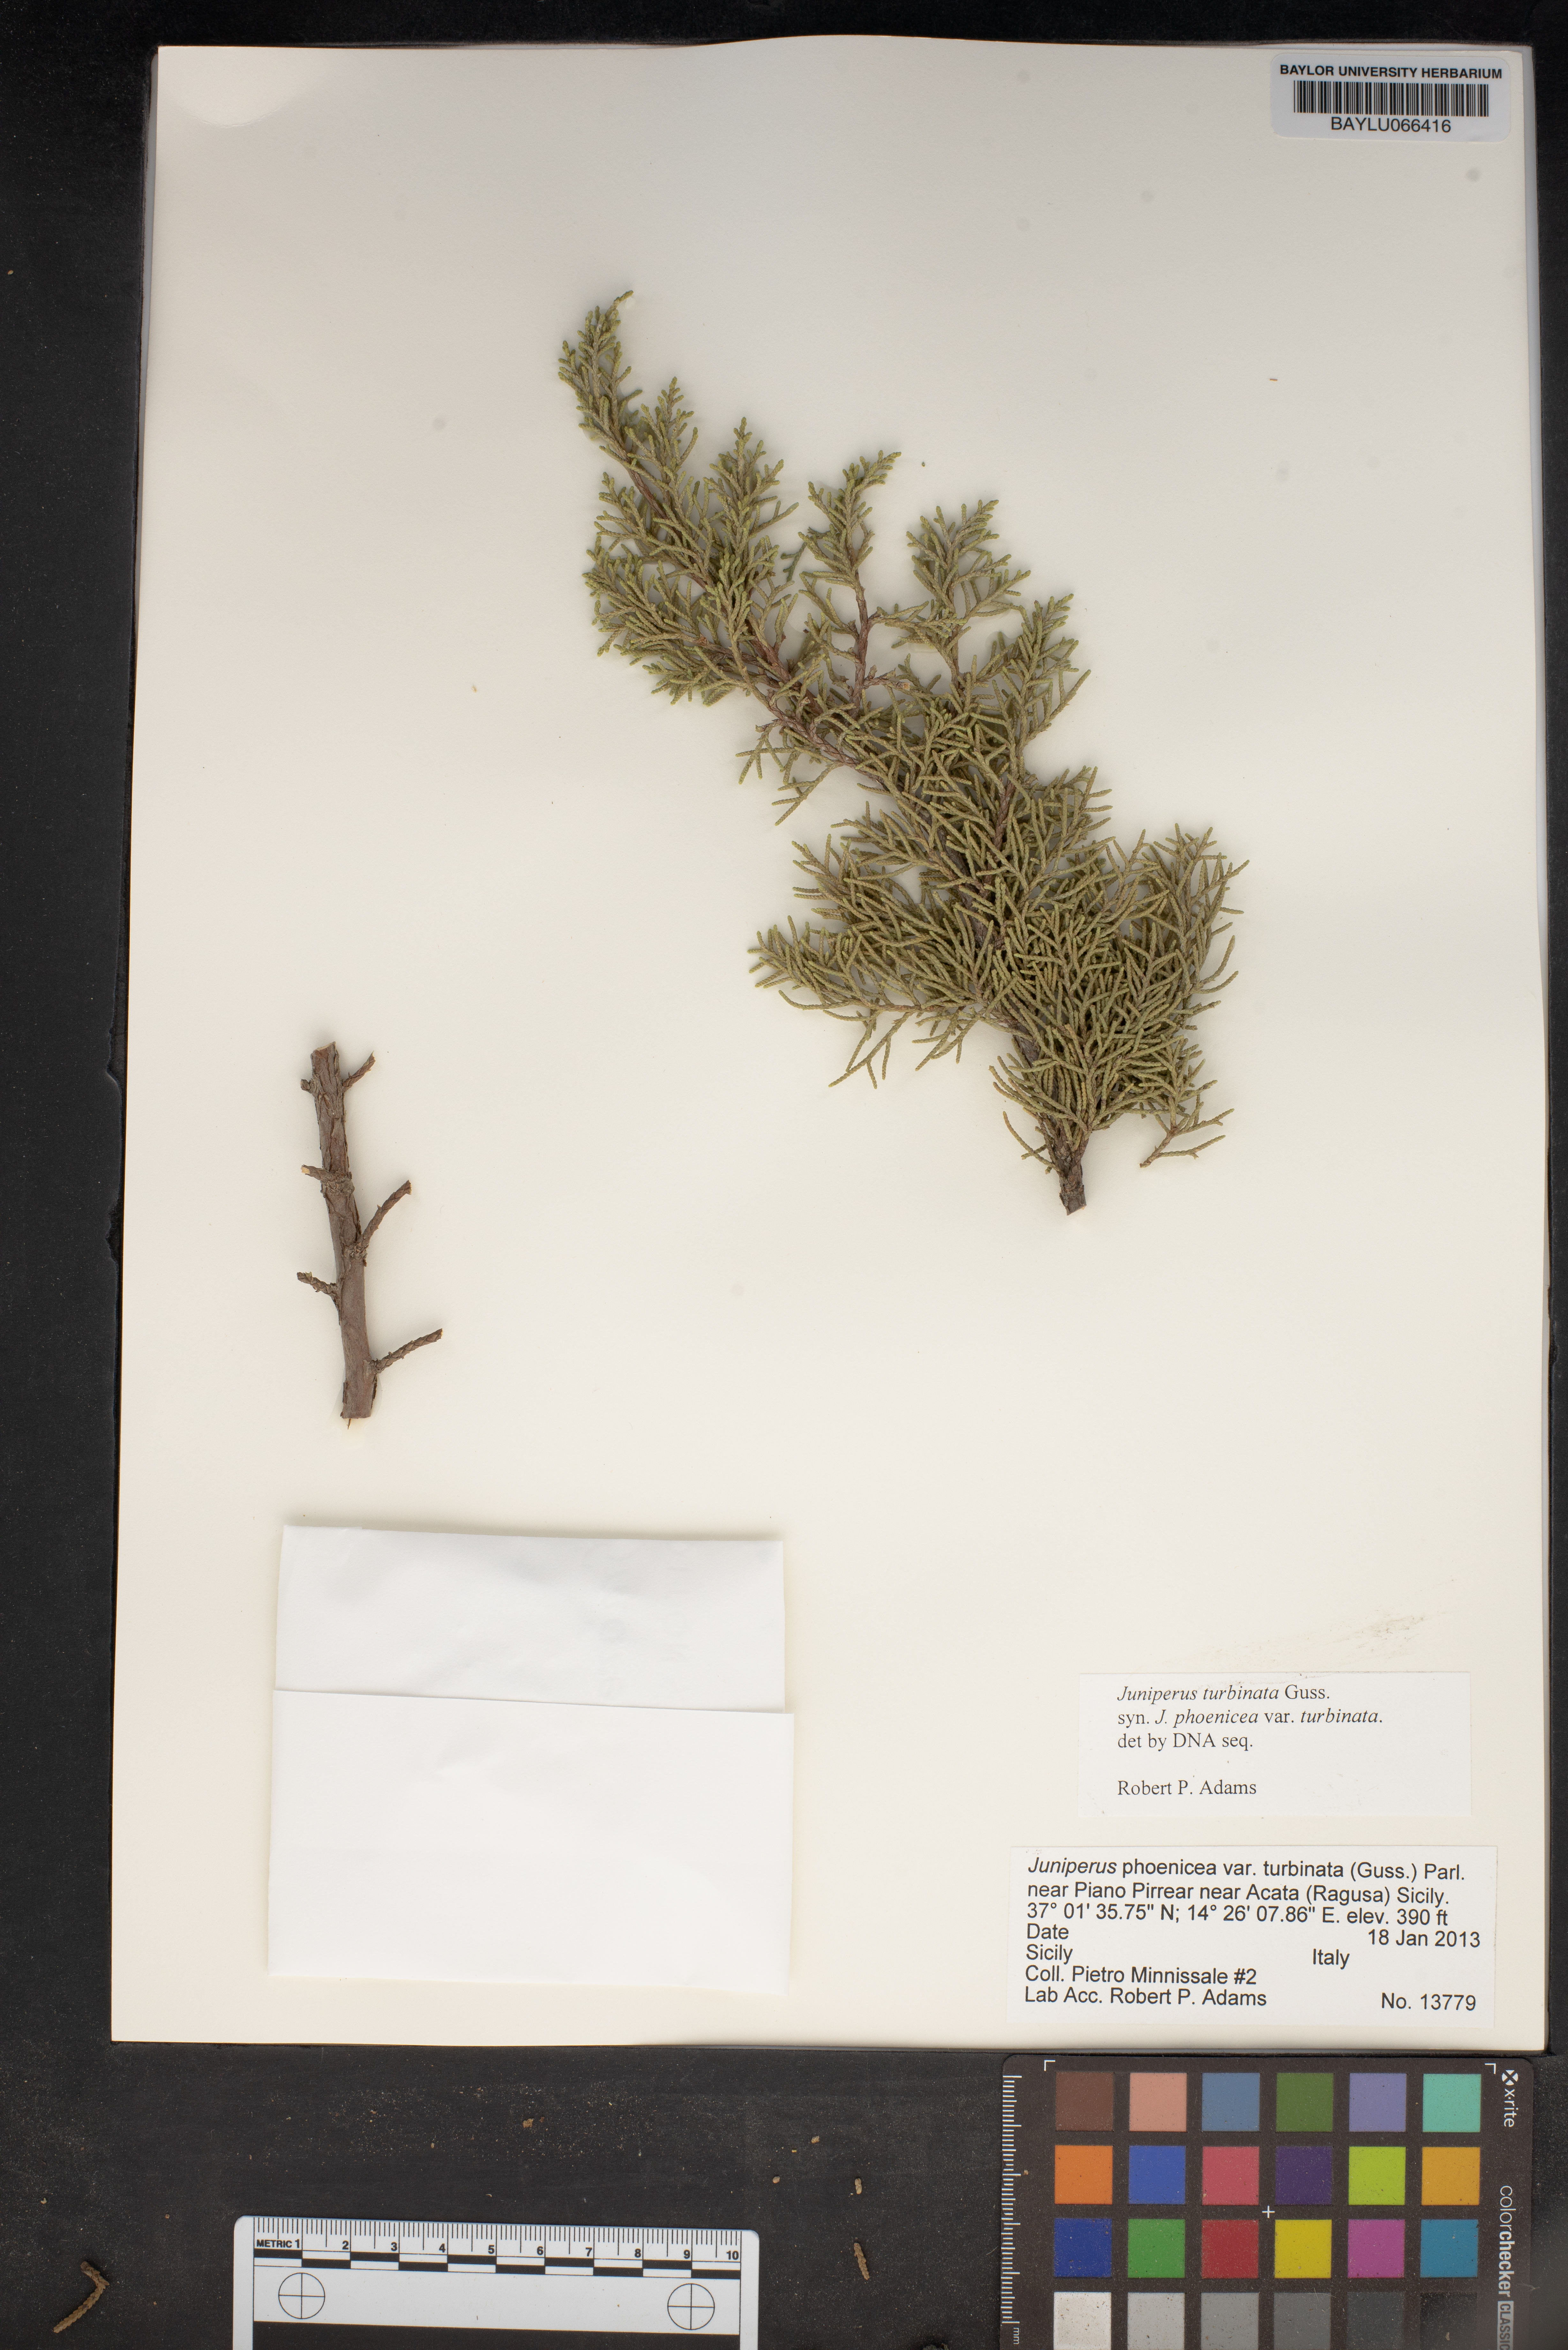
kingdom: Plantae
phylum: Tracheophyta
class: Pinopsida
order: Pinales
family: Cupressaceae
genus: Juniperus
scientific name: Juniperus phoenicea
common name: Phoenician juniper
